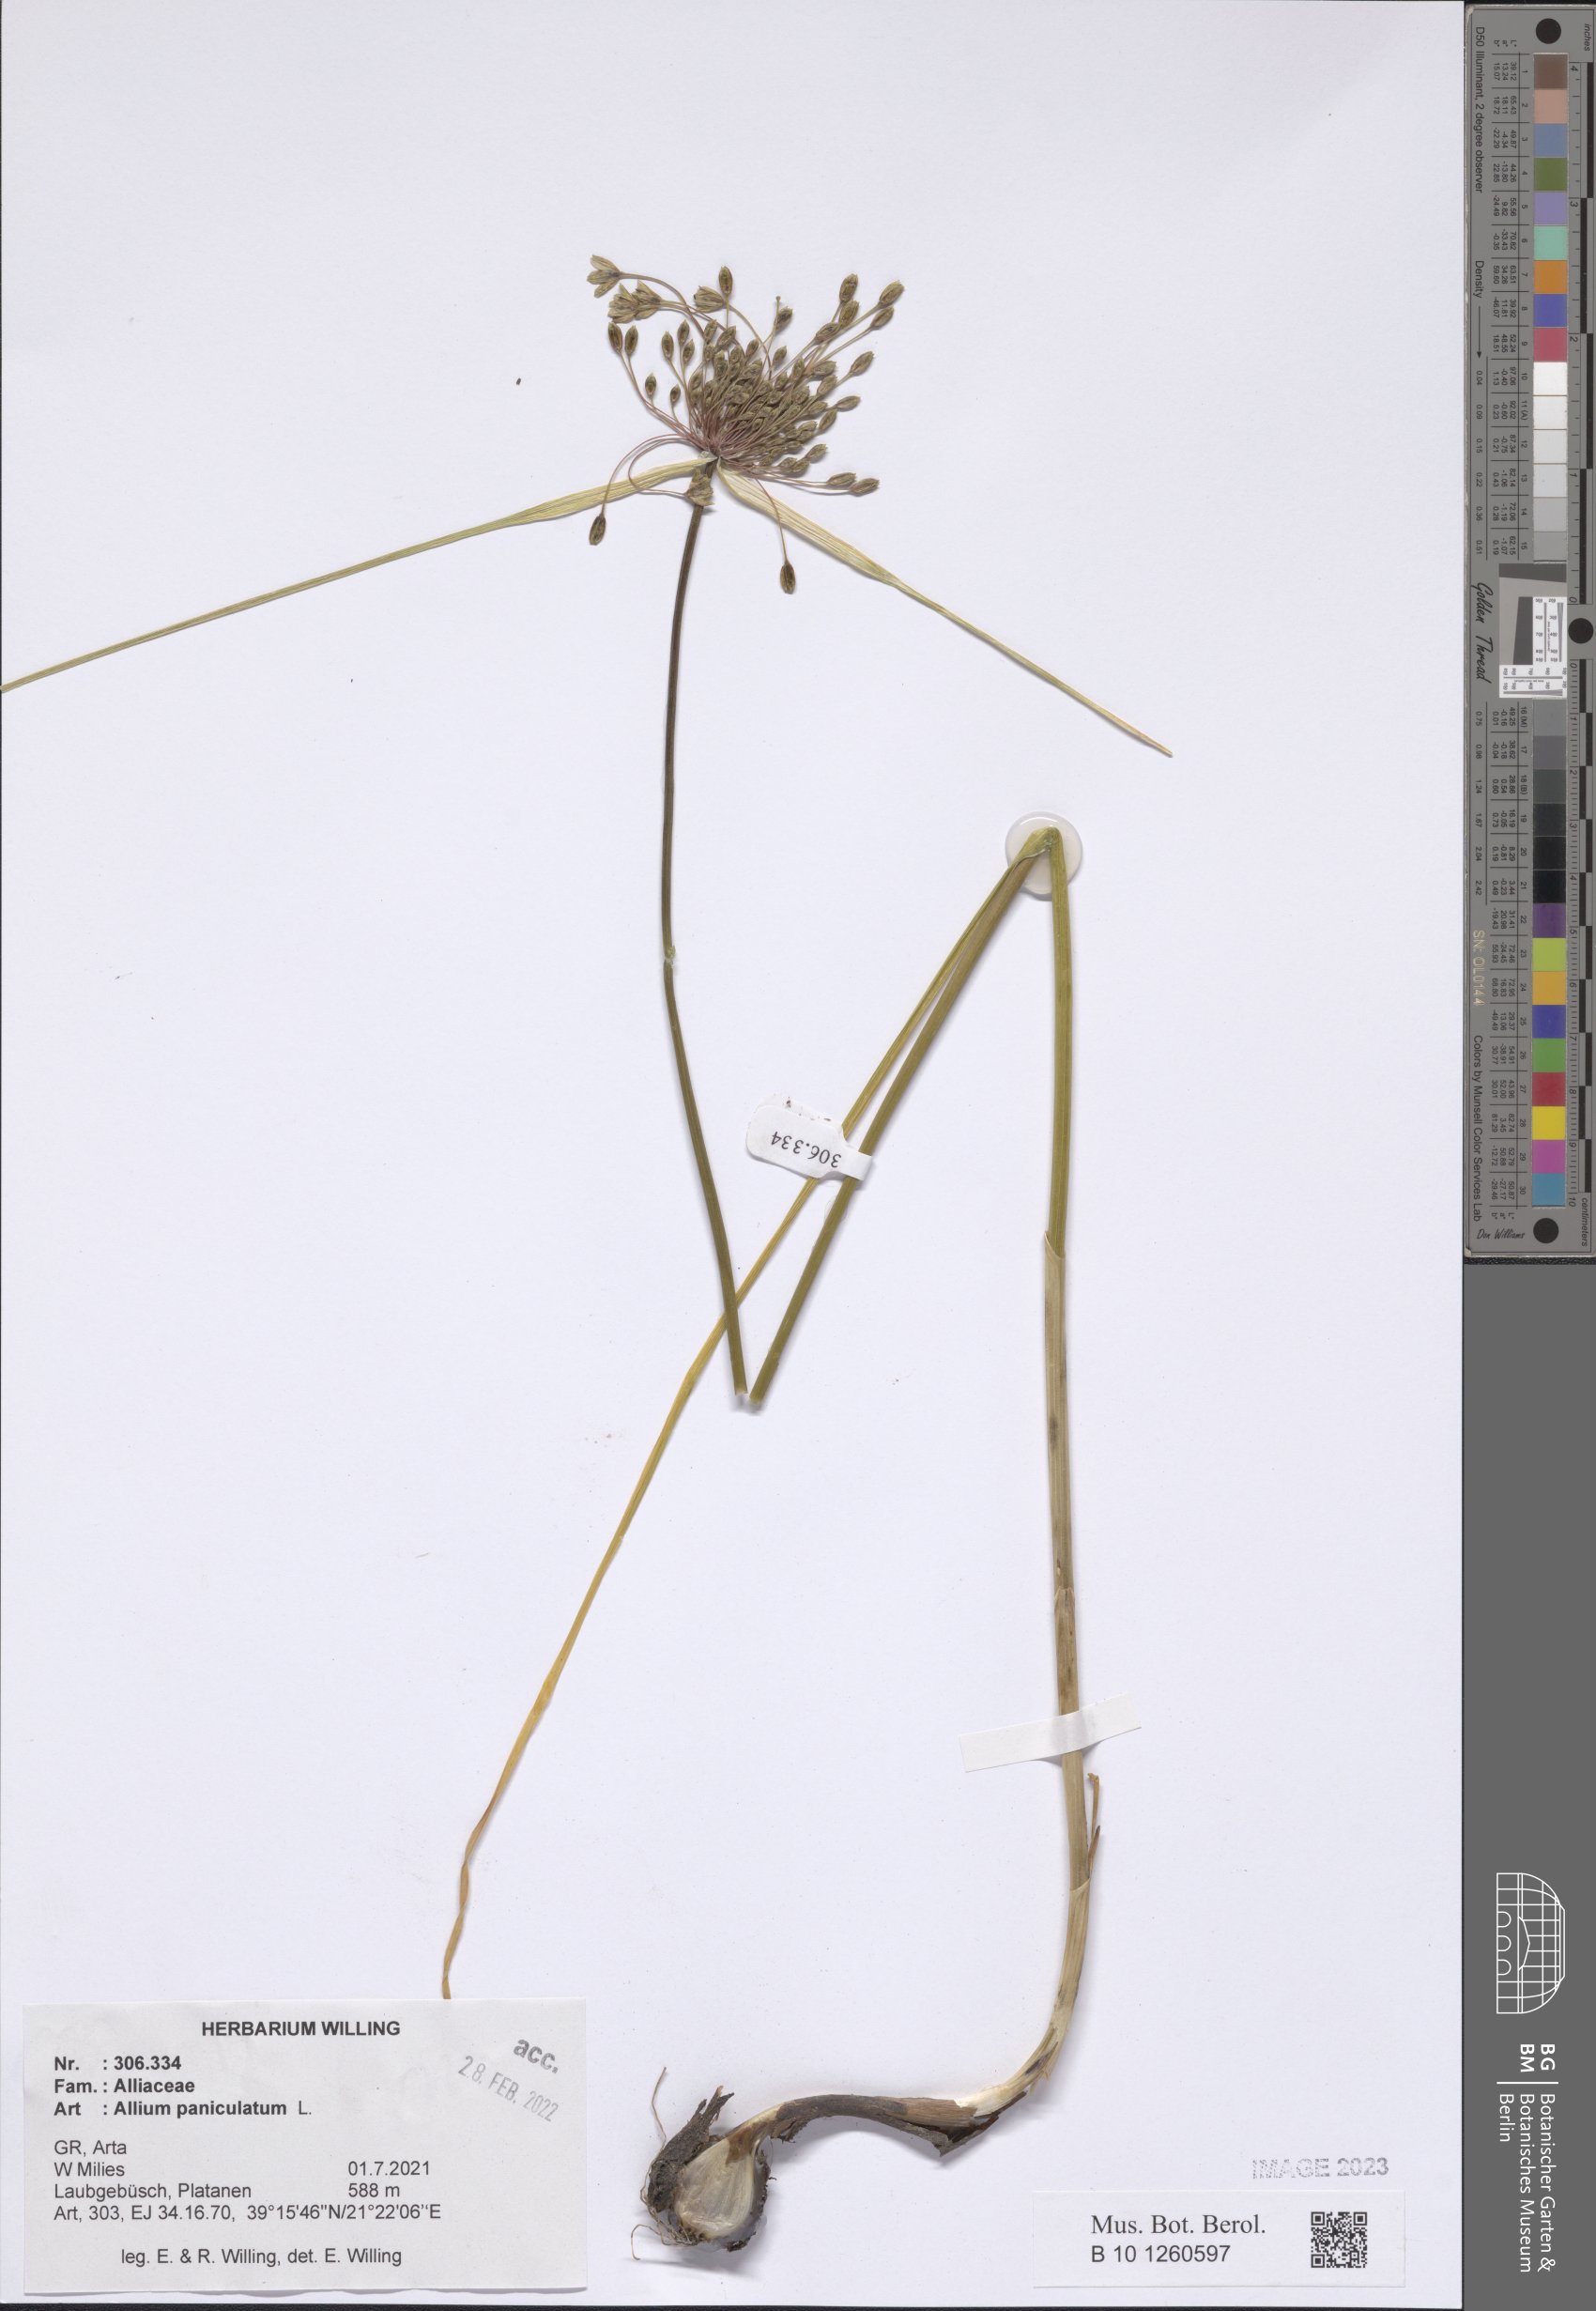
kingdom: Plantae
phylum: Tracheophyta
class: Liliopsida
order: Asparagales
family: Amaryllidaceae
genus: Allium
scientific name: Allium paniculatum
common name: Pale garlic
